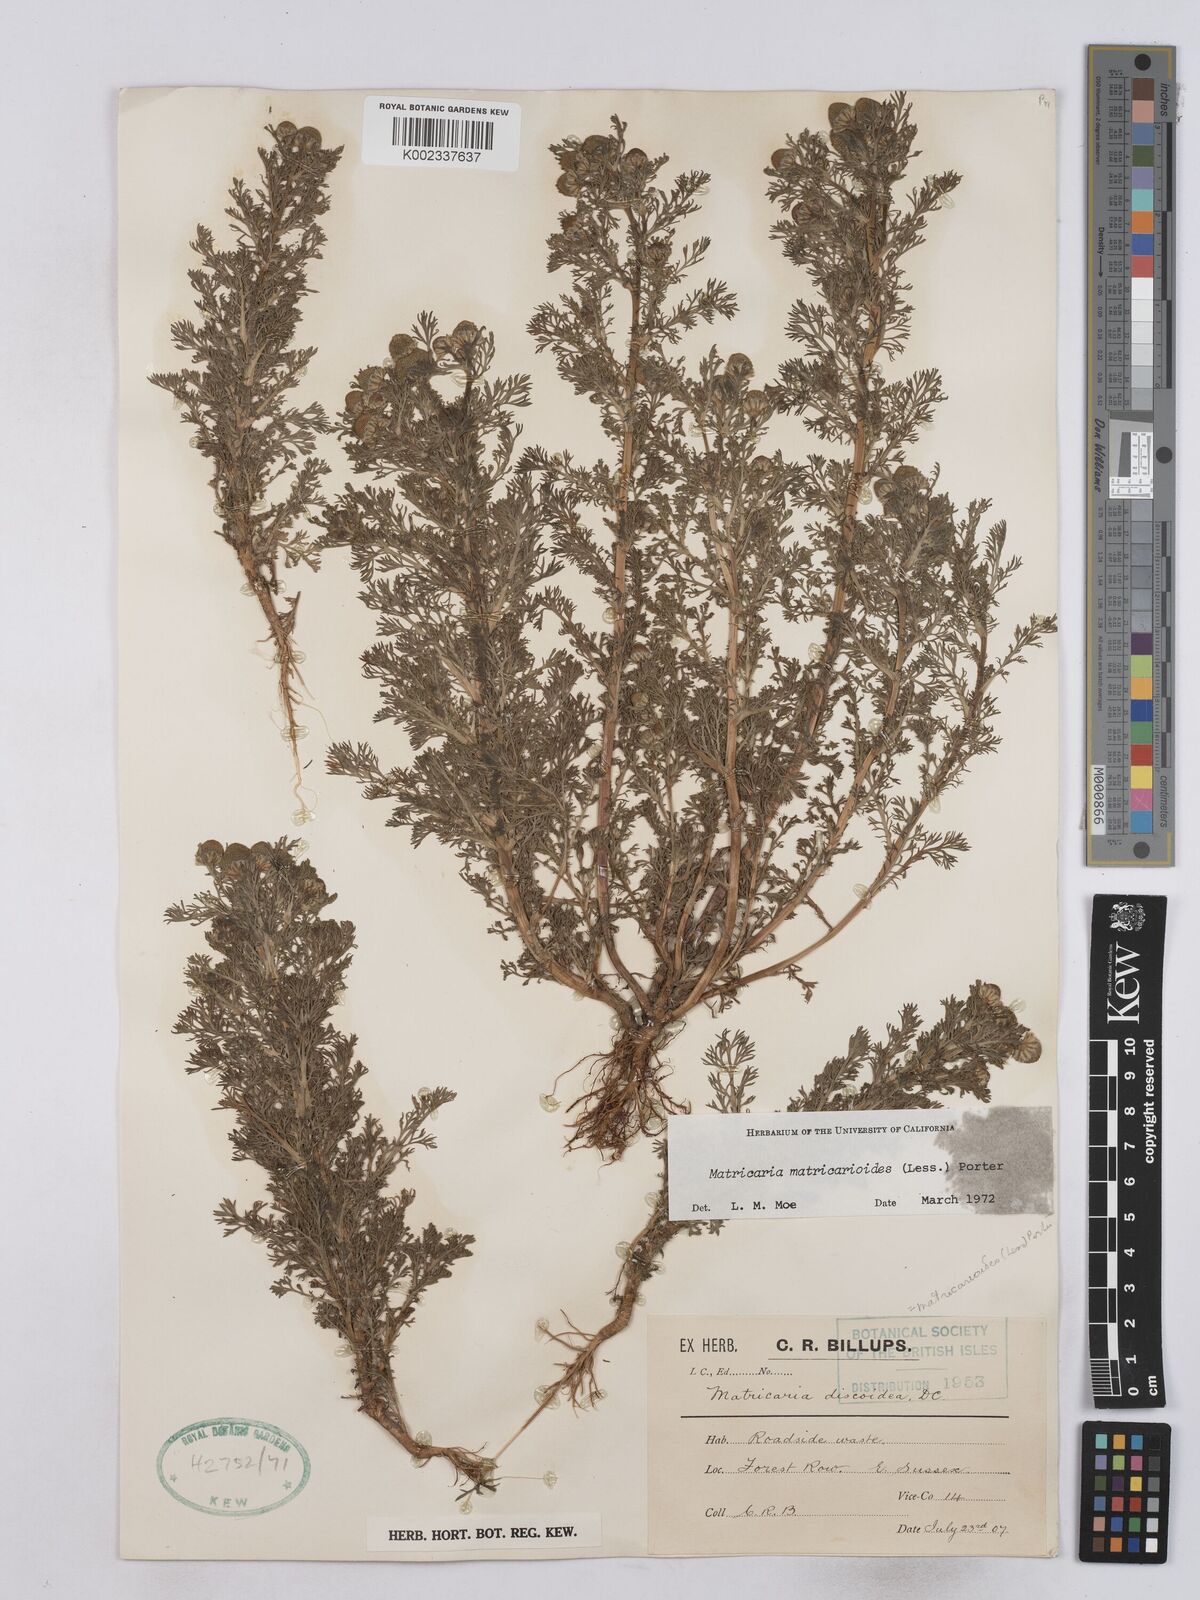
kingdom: Plantae
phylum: Tracheophyta
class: Magnoliopsida
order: Asterales
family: Asteraceae
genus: Matricaria
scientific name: Matricaria discoidea
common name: Disc mayweed
